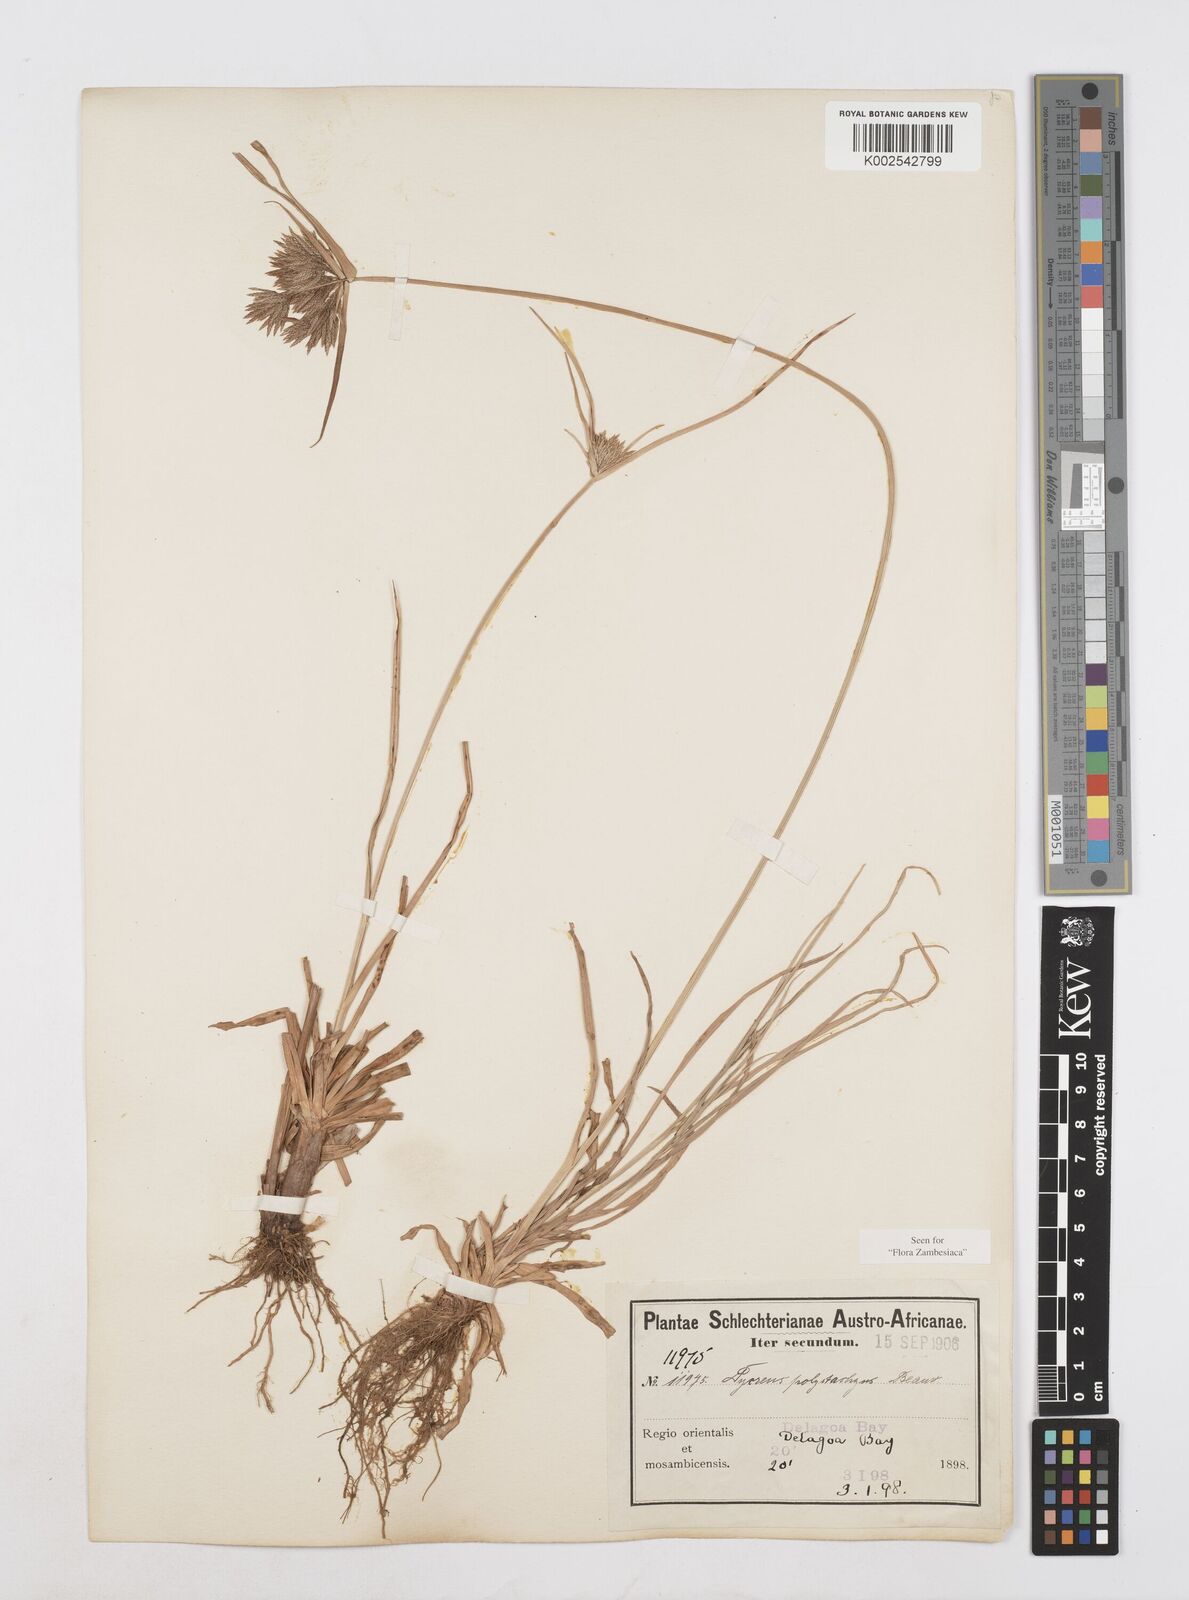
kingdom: Plantae
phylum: Tracheophyta
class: Liliopsida
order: Poales
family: Cyperaceae
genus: Cyperus
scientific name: Cyperus polystachyos
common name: Bunchy flat sedge
